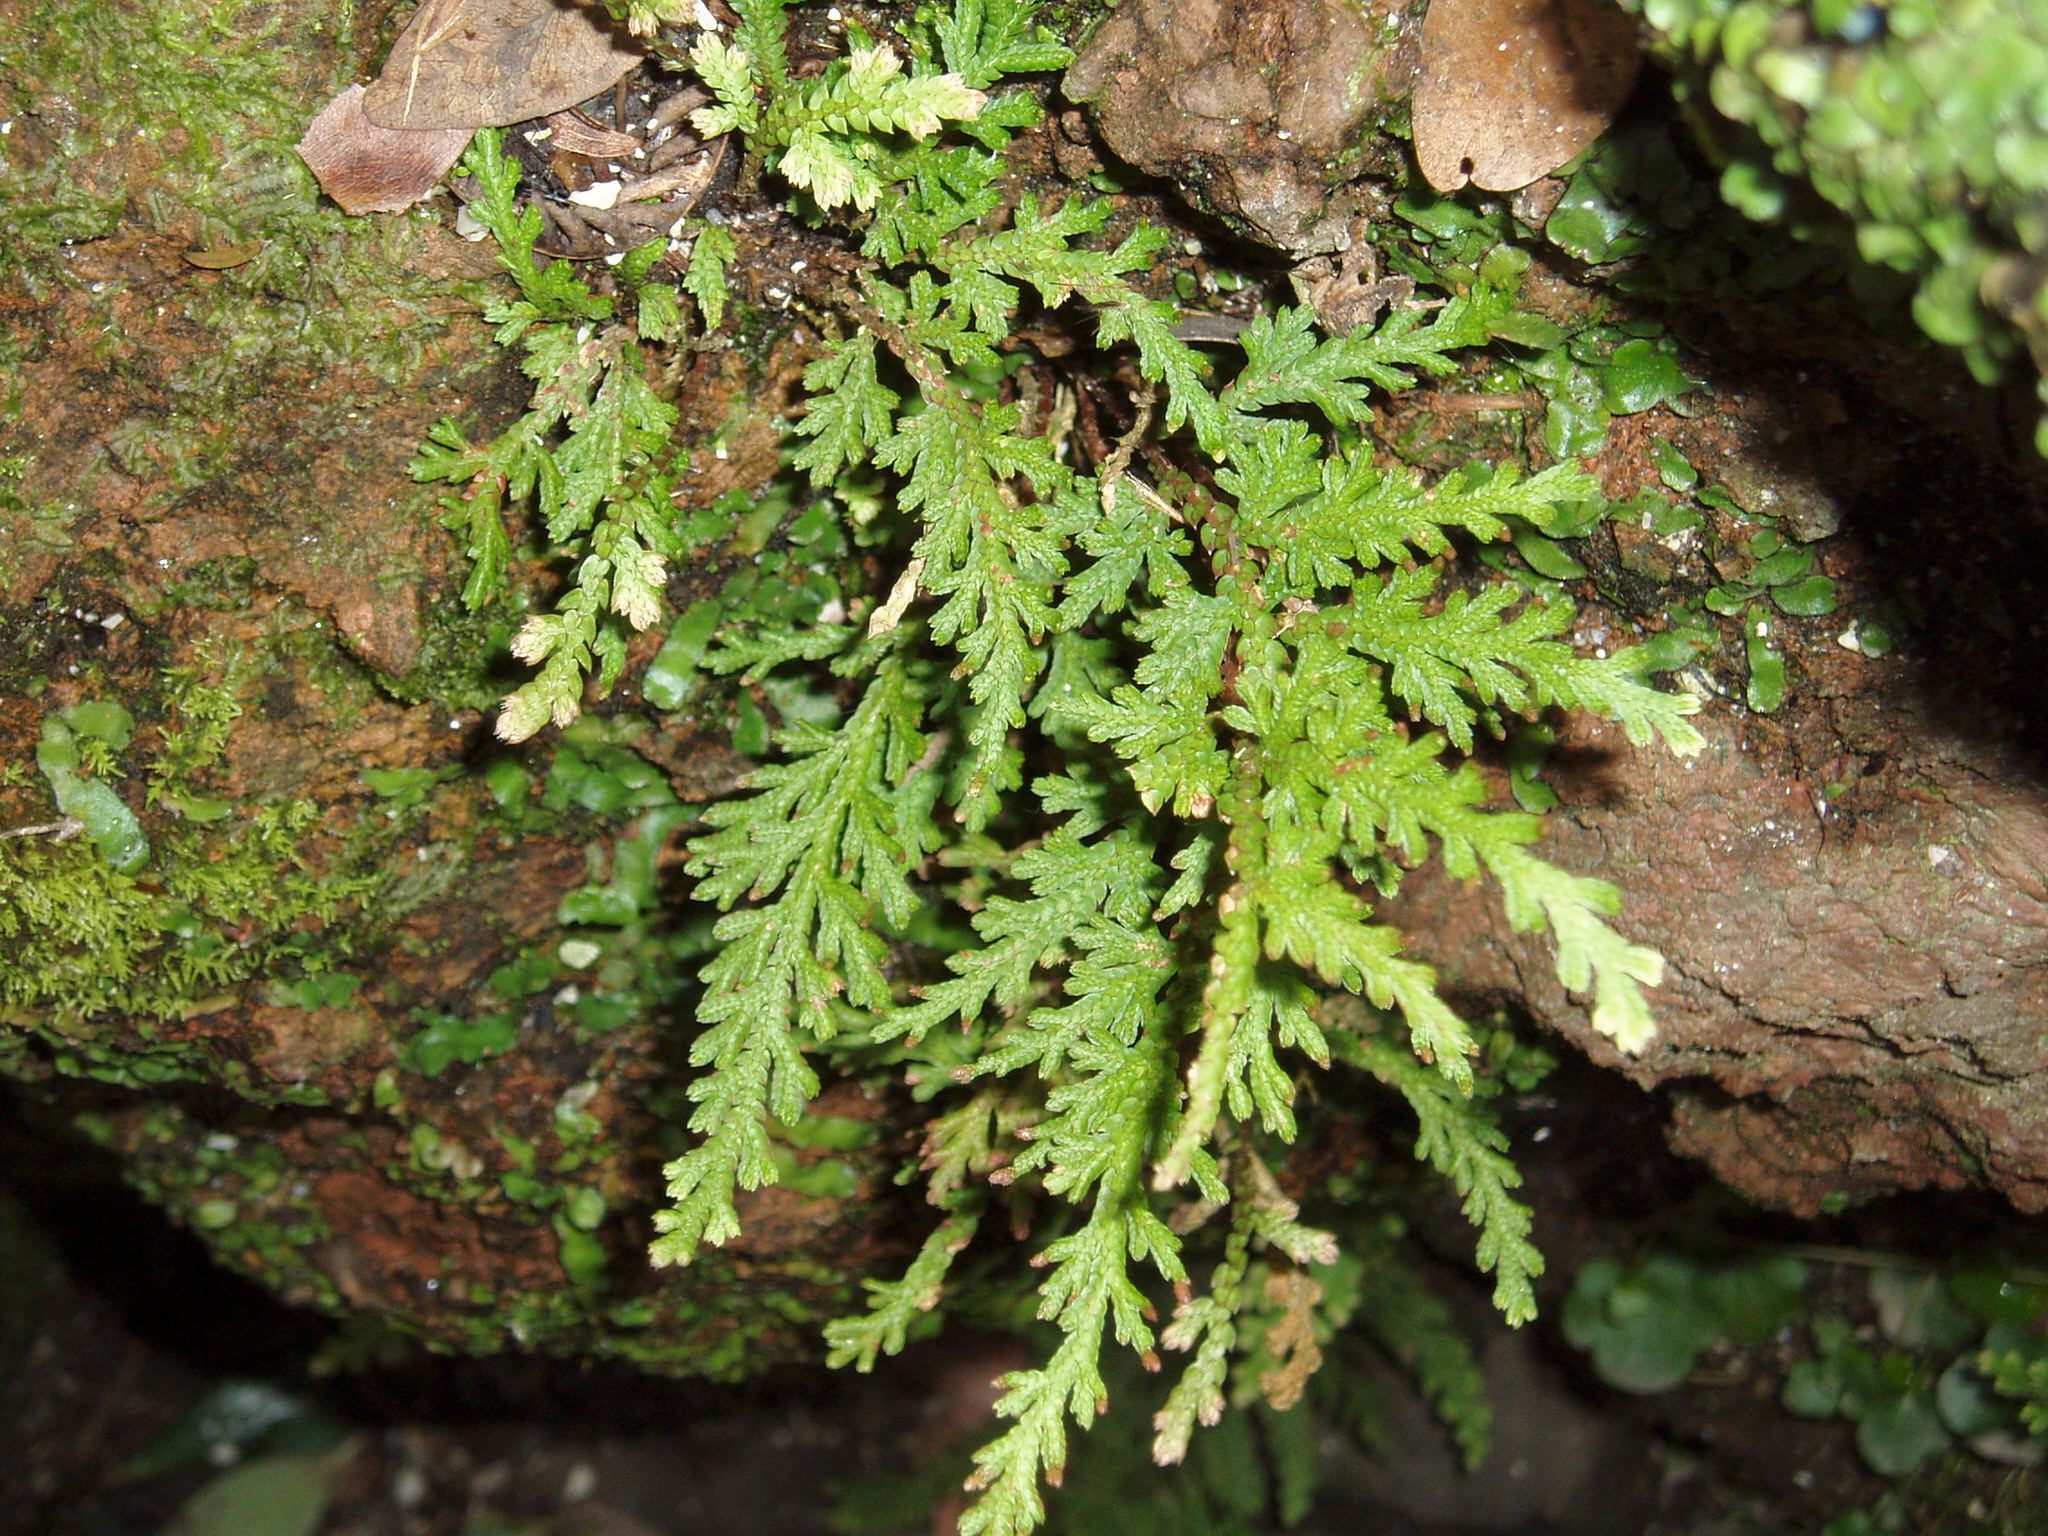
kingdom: Plantae
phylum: Tracheophyta
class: Lycopodiopsida
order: Selaginellales
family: Selaginellaceae
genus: Selaginella
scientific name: Selaginella moellendorffii
